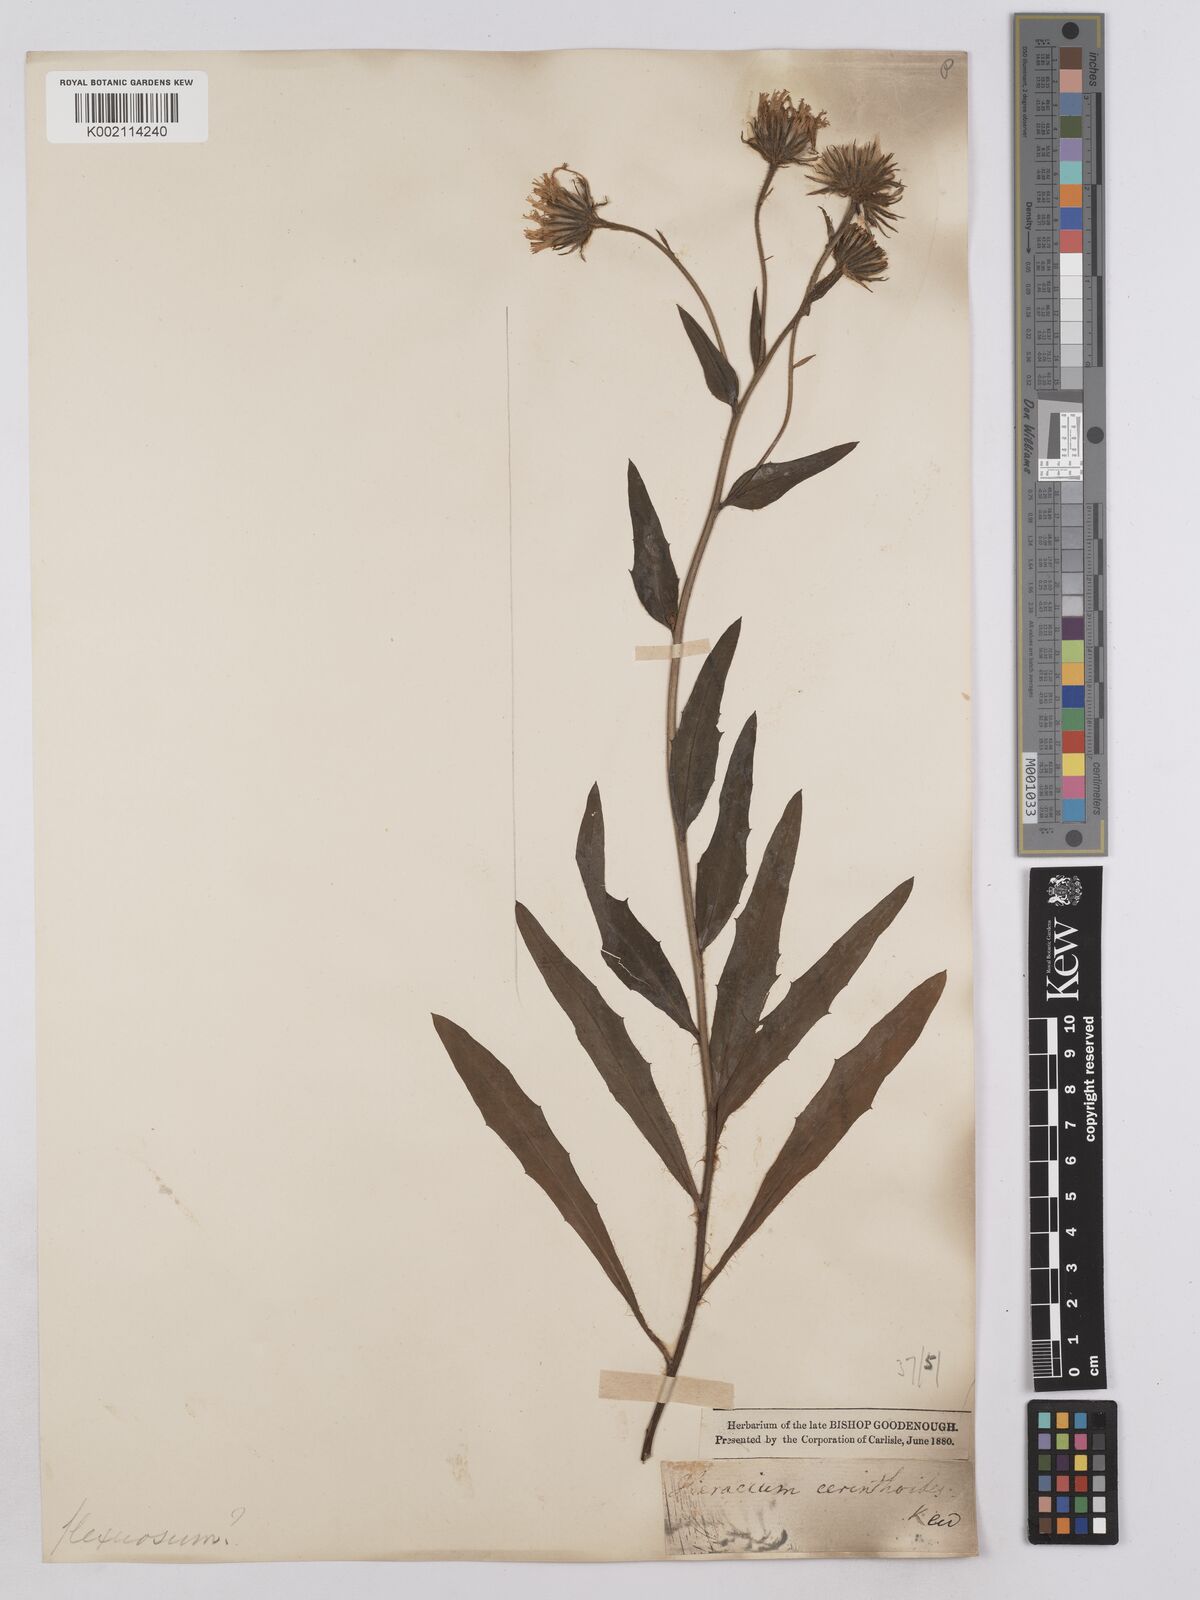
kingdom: Plantae
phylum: Tracheophyta
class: Magnoliopsida
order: Asterales
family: Asteraceae
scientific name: Asteraceae
